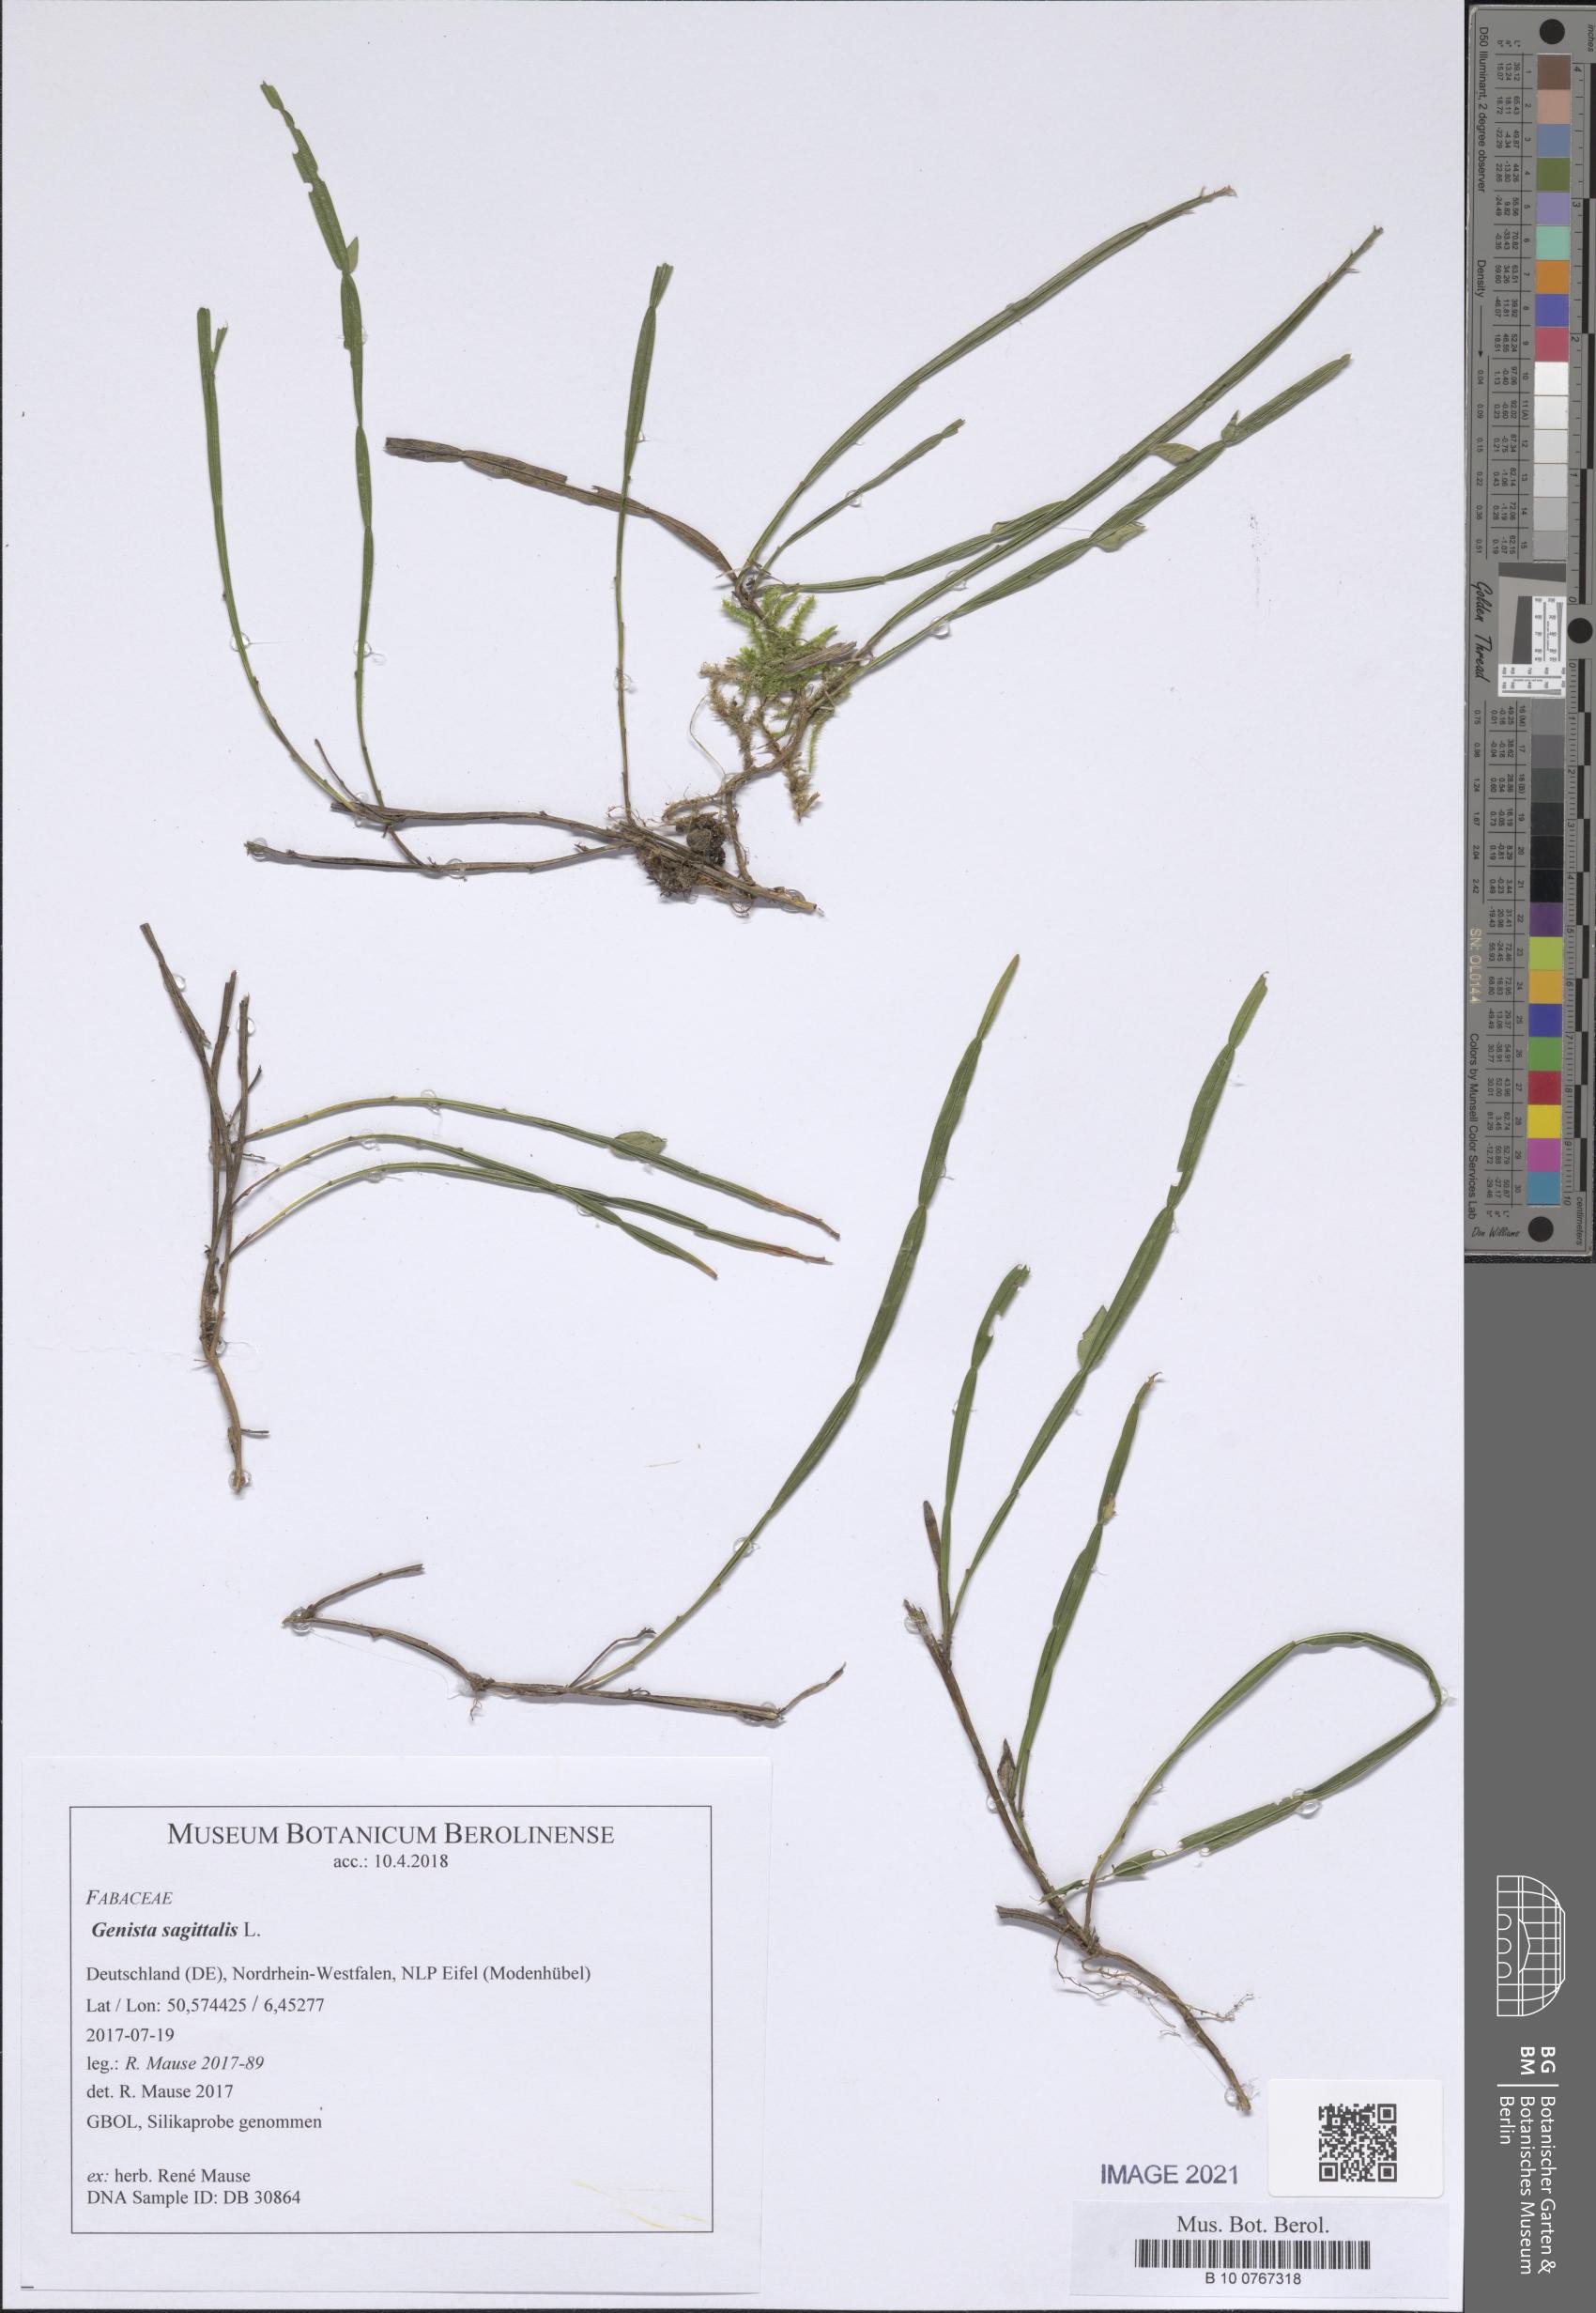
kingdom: Plantae
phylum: Tracheophyta
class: Magnoliopsida
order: Fabales
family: Fabaceae
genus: Genista
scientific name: Genista sagittalis
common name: Winged greenweed
